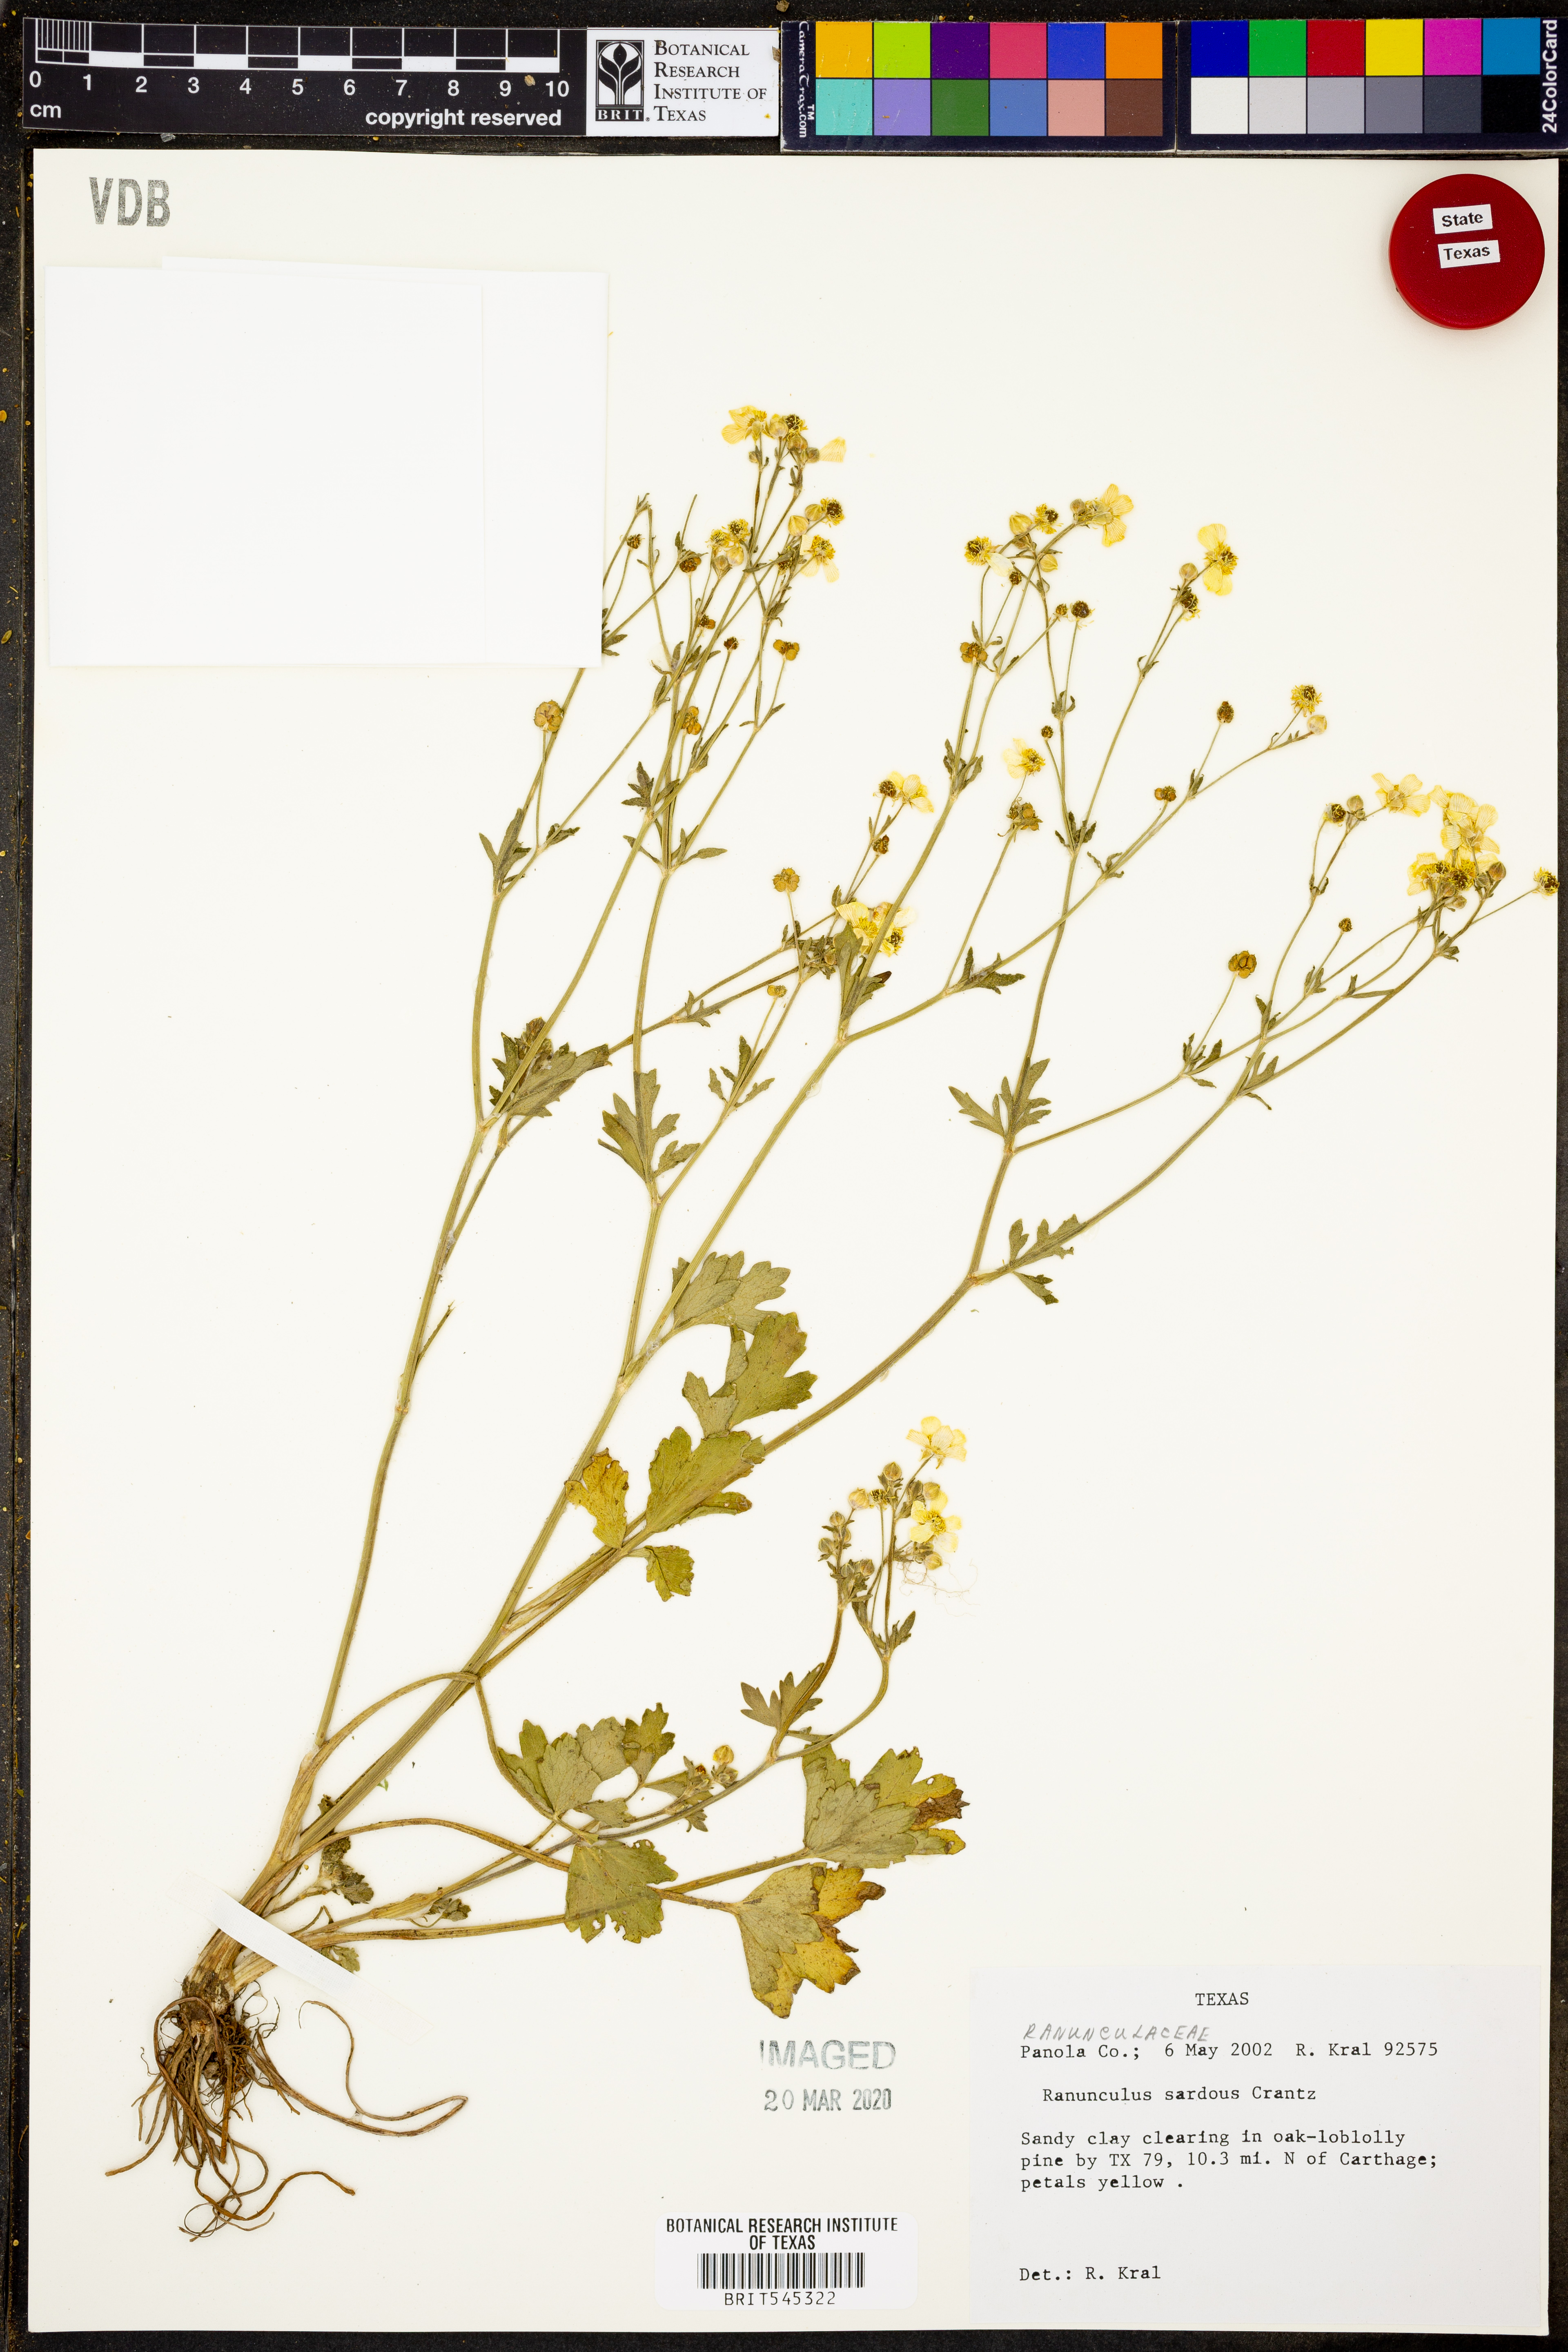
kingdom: Plantae
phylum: Tracheophyta
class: Magnoliopsida
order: Ranunculales
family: Ranunculaceae
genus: Ranunculus
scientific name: Ranunculus sardous
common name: Hairy buttercup
